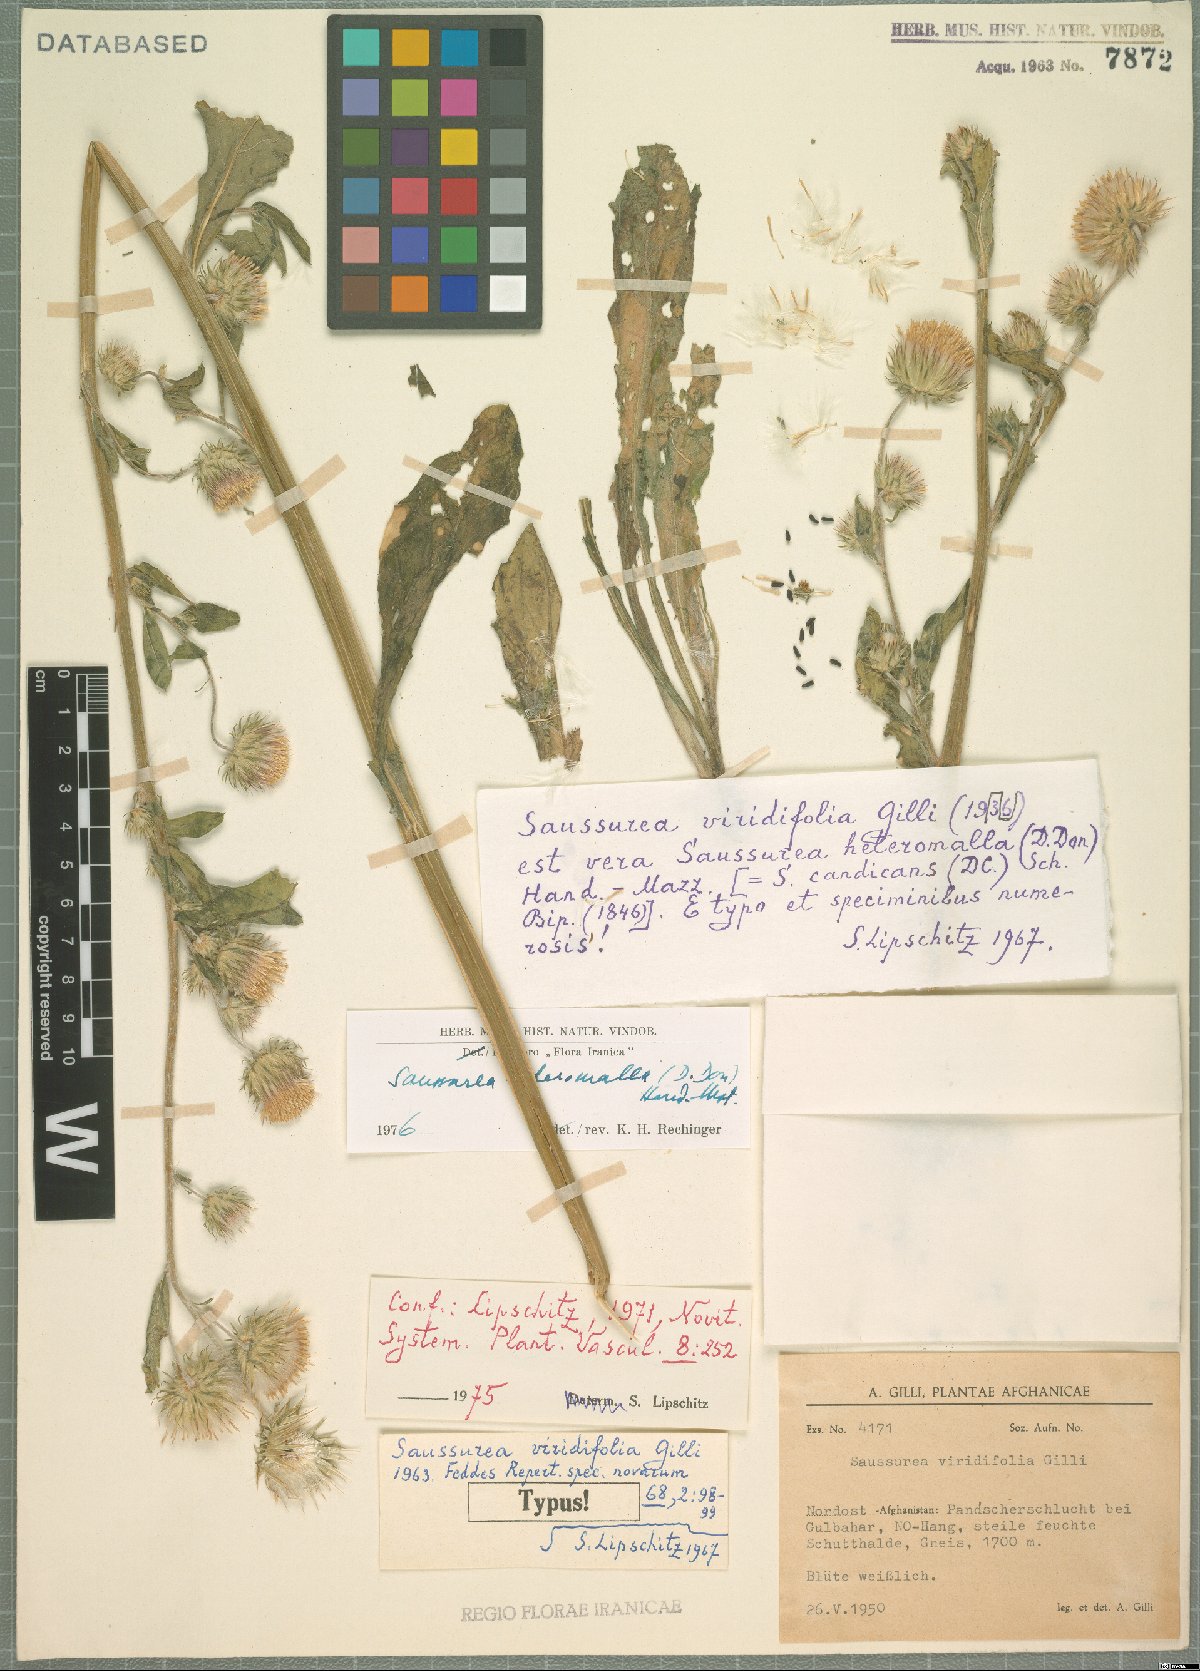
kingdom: Plantae
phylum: Tracheophyta
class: Magnoliopsida
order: Asterales
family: Asteraceae
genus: Jurinea
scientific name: Jurinea heteromalla
